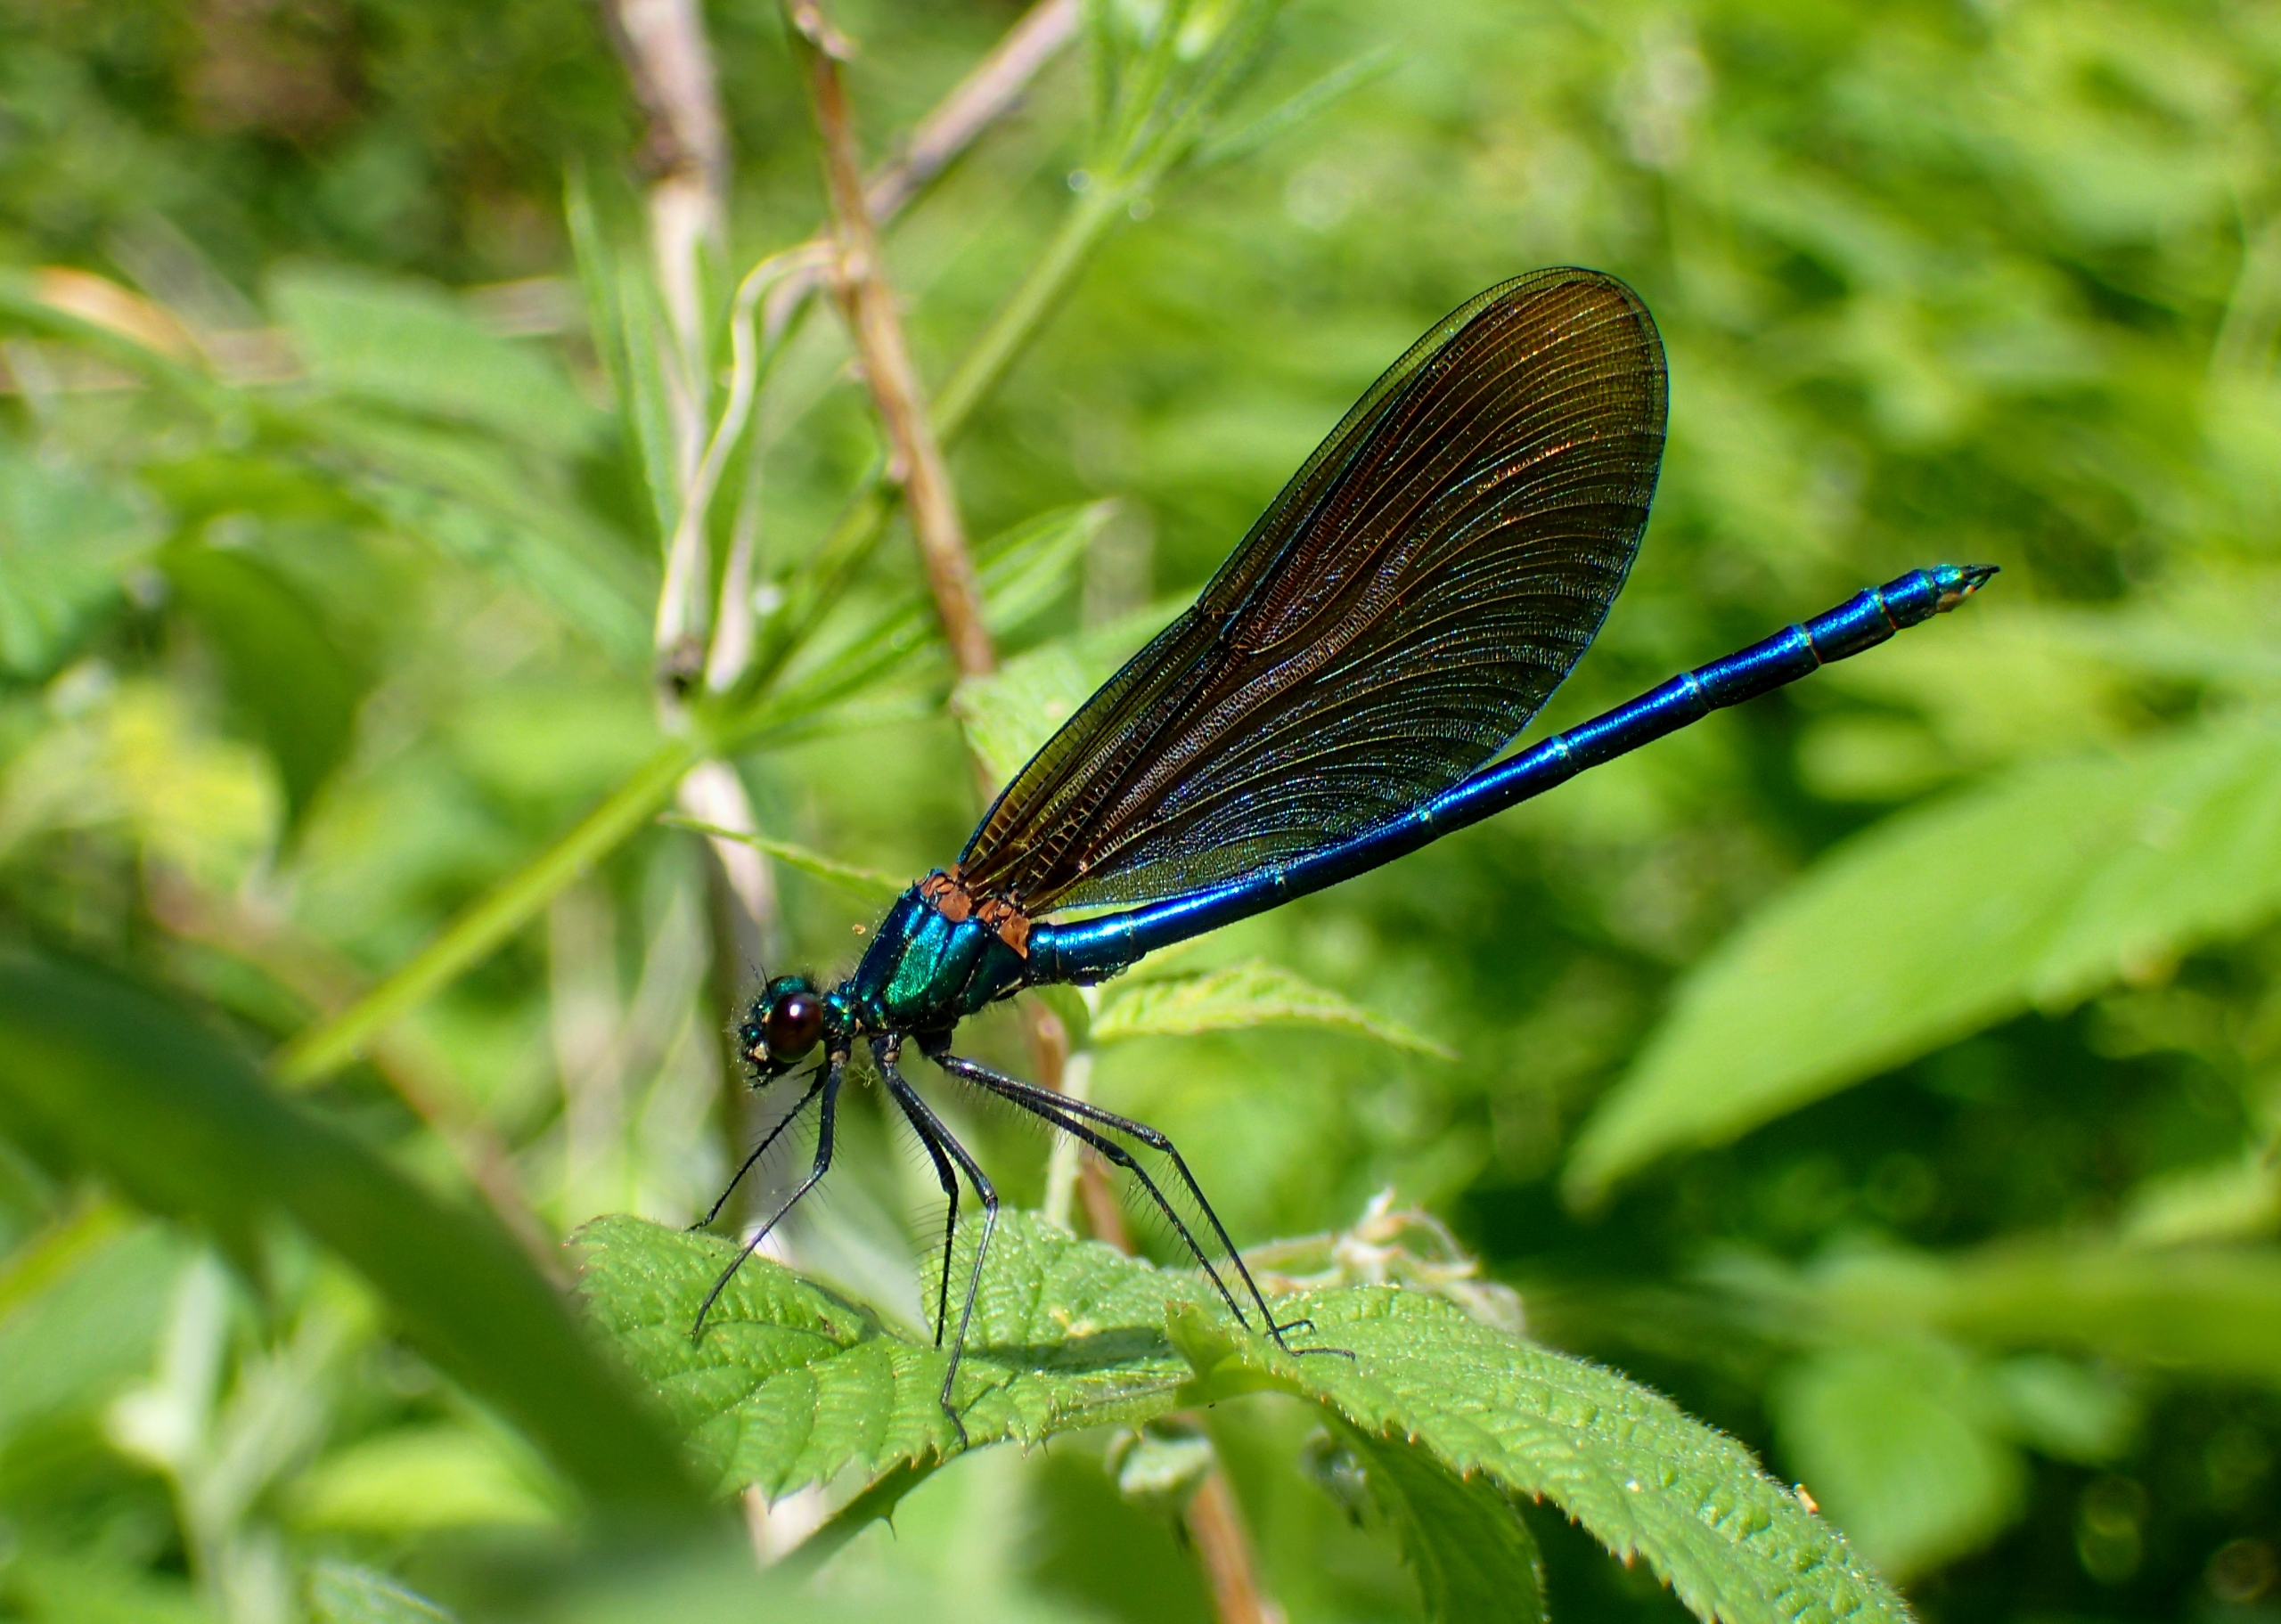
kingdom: Animalia
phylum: Arthropoda
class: Insecta
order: Odonata
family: Calopterygidae
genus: Calopteryx
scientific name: Calopteryx virgo
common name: Blåvinget pragtvandnymfe
